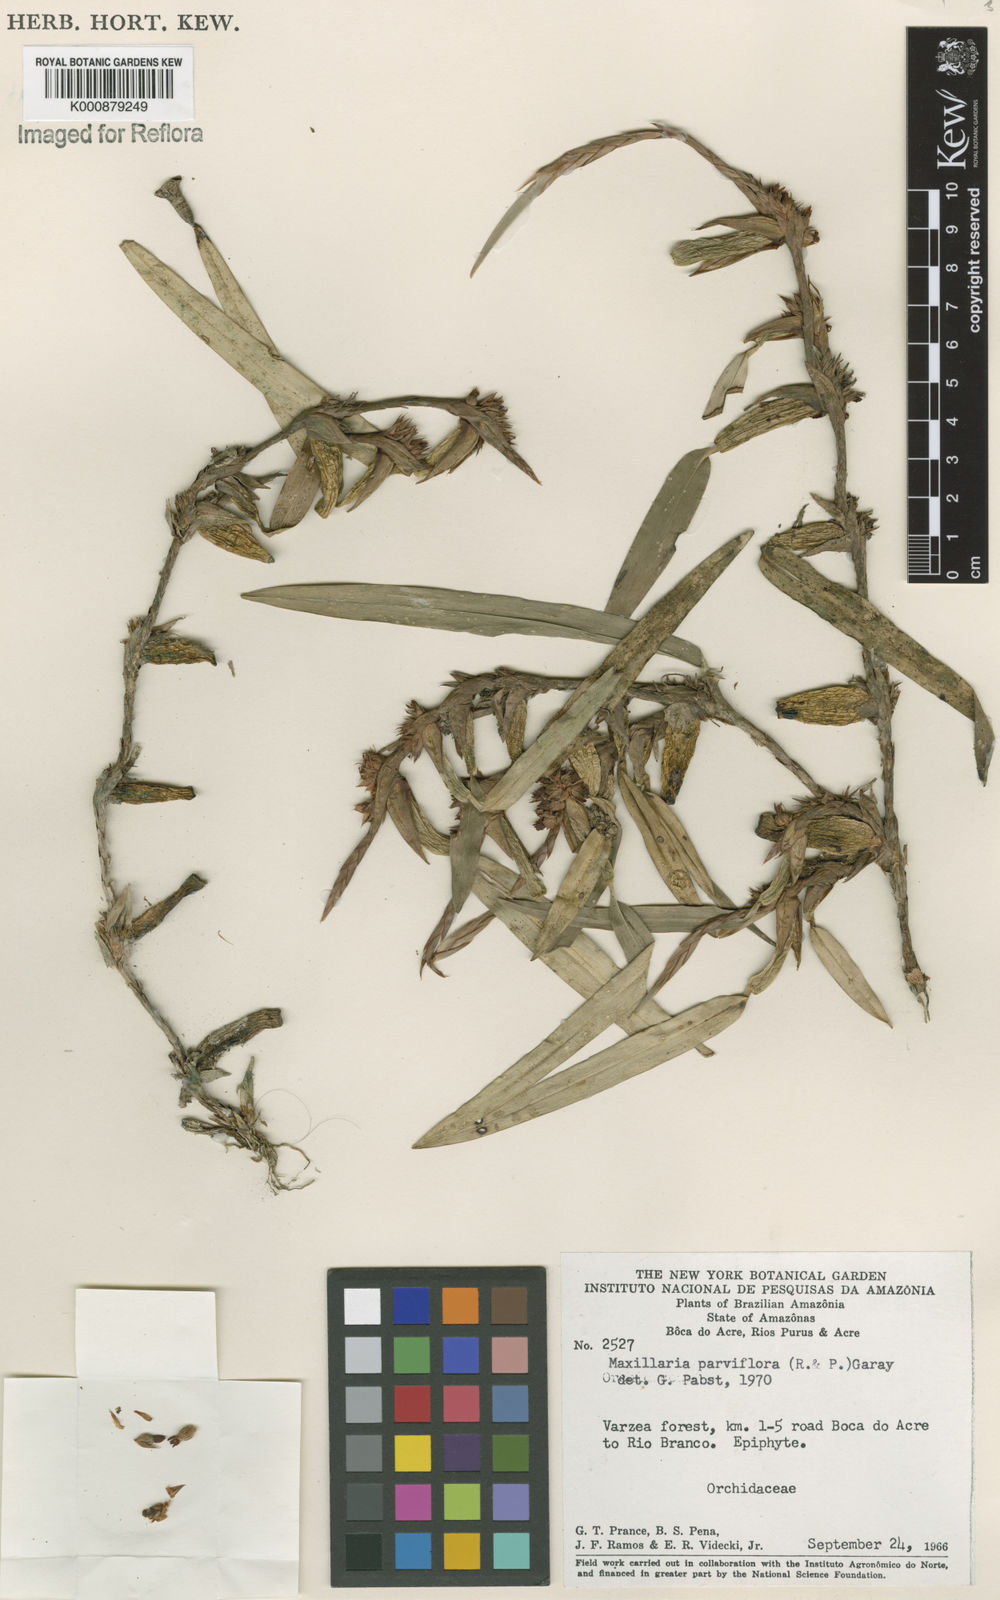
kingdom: Plantae
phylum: Tracheophyta
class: Liliopsida
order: Asparagales
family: Orchidaceae
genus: Maxillaria
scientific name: Maxillaria parviflora
